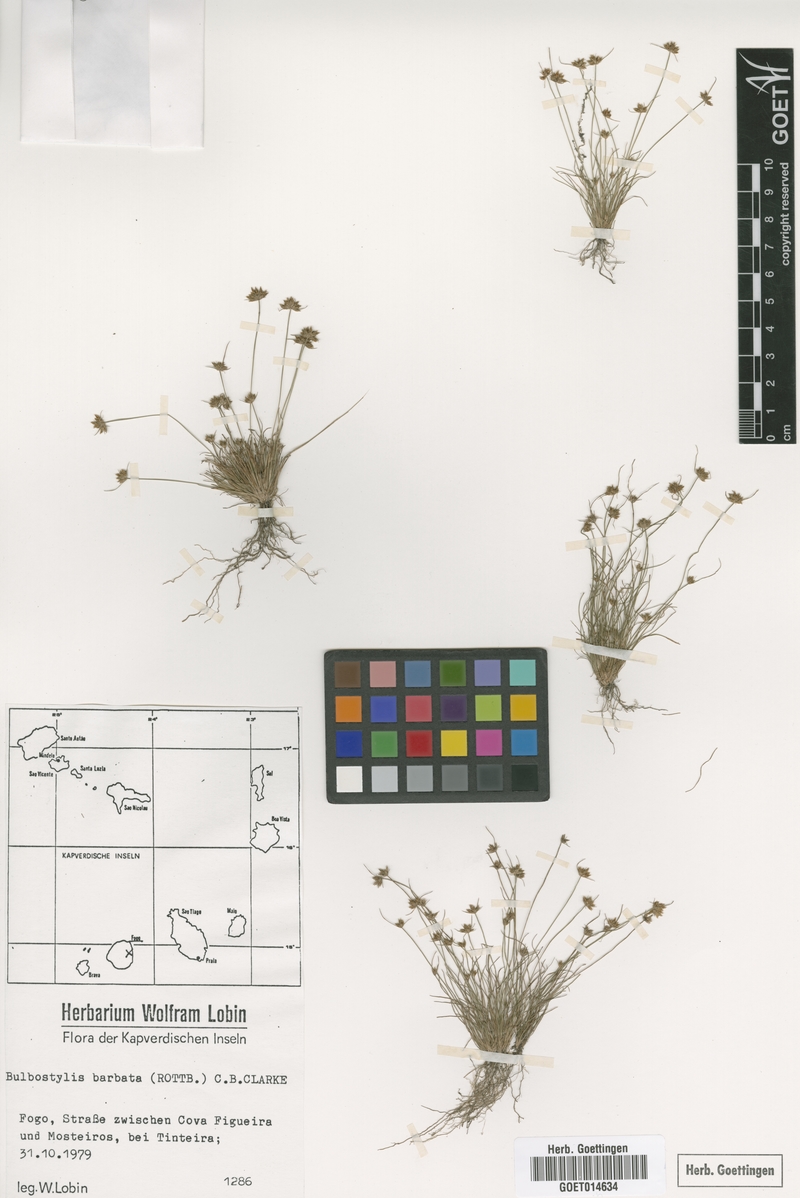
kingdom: Plantae
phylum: Tracheophyta
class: Liliopsida
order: Poales
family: Cyperaceae
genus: Bulbostylis
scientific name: Bulbostylis barbata
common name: Watergrass
